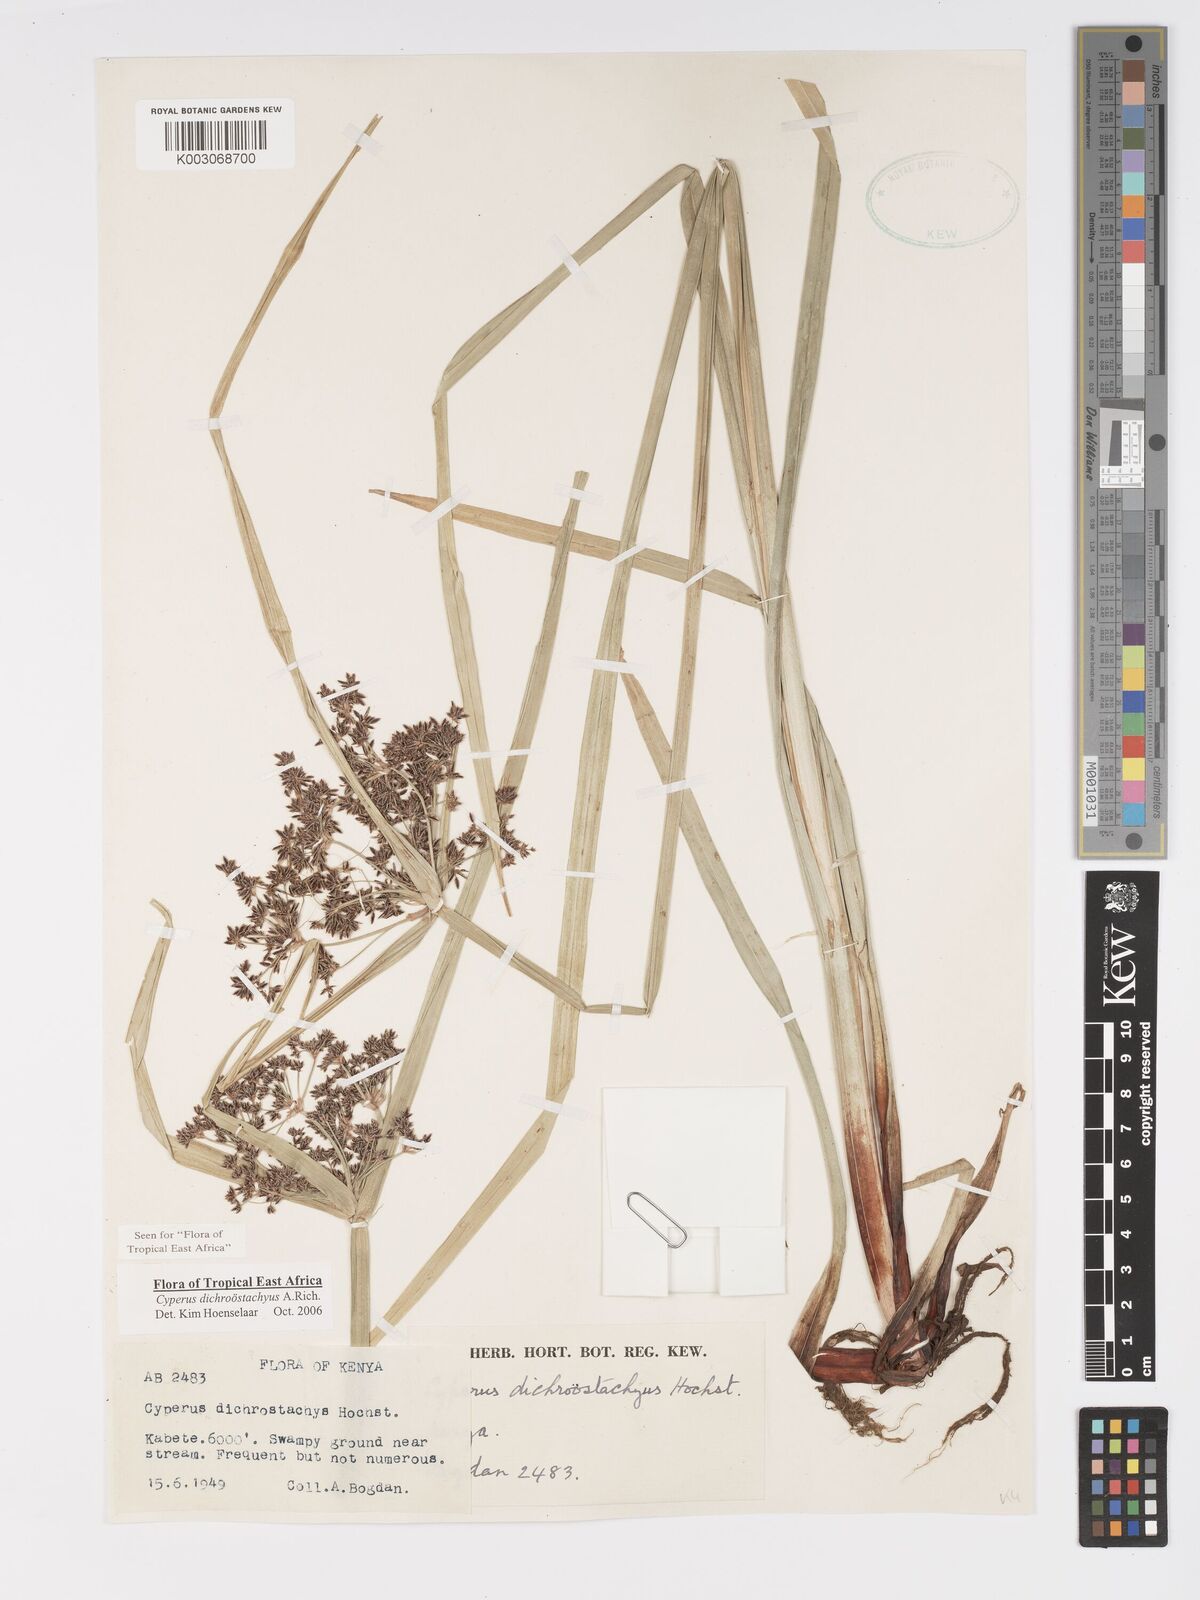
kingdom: Plantae
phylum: Tracheophyta
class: Liliopsida
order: Poales
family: Cyperaceae
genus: Cyperus
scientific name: Cyperus dichrostachyus
